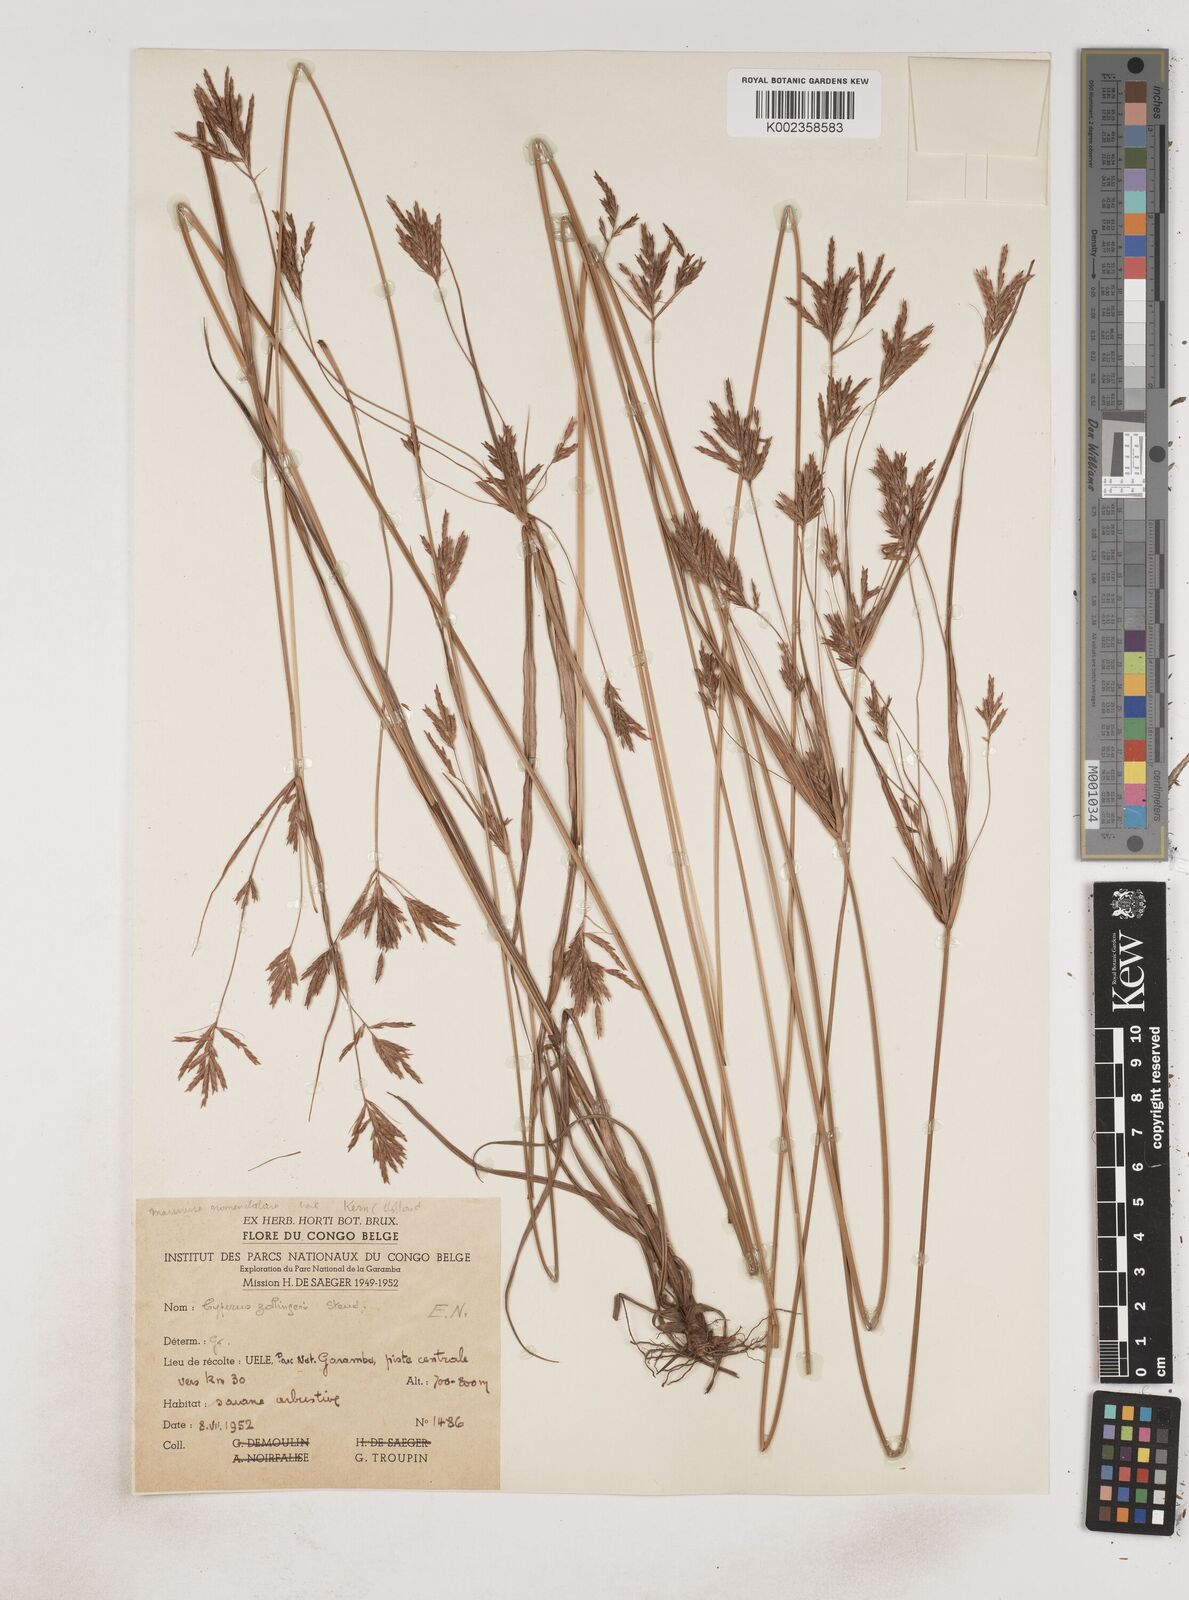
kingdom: Plantae
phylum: Tracheophyta
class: Liliopsida
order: Poales
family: Cyperaceae
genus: Cyperus
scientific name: Cyperus tenuiculmis
